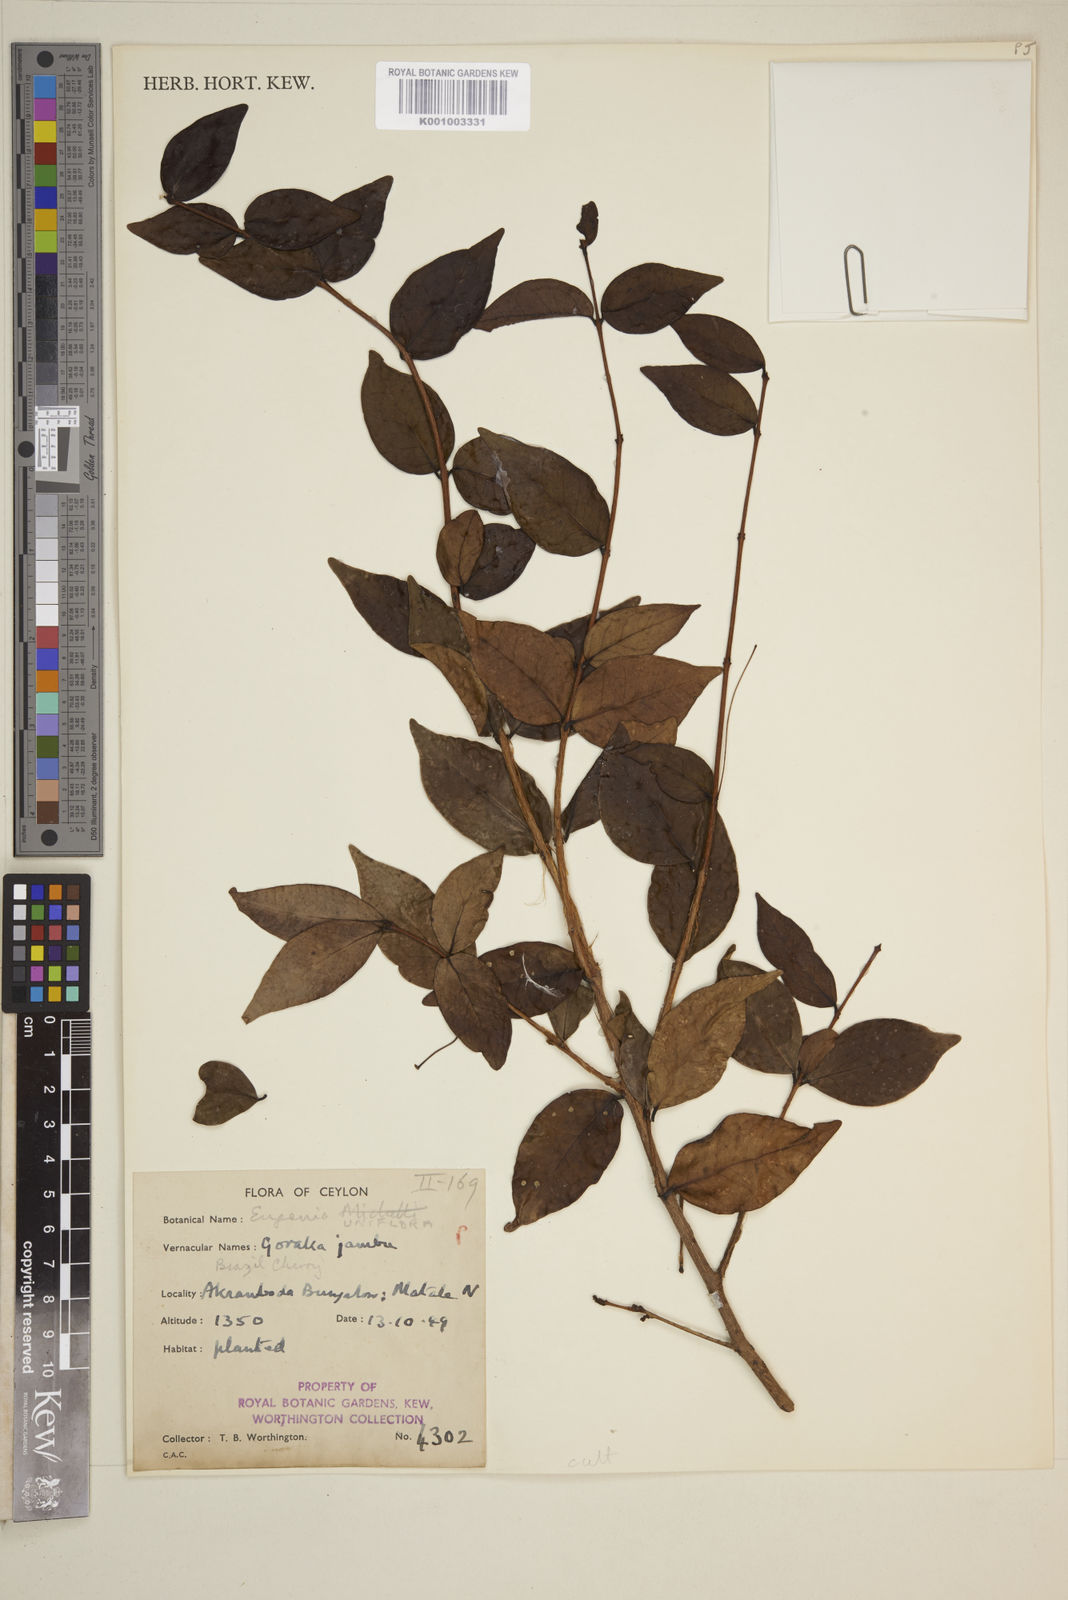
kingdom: Plantae
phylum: Tracheophyta
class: Magnoliopsida
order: Myrtales
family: Myrtaceae
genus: Eugenia
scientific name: Eugenia uniflora
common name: Surinam cherry
